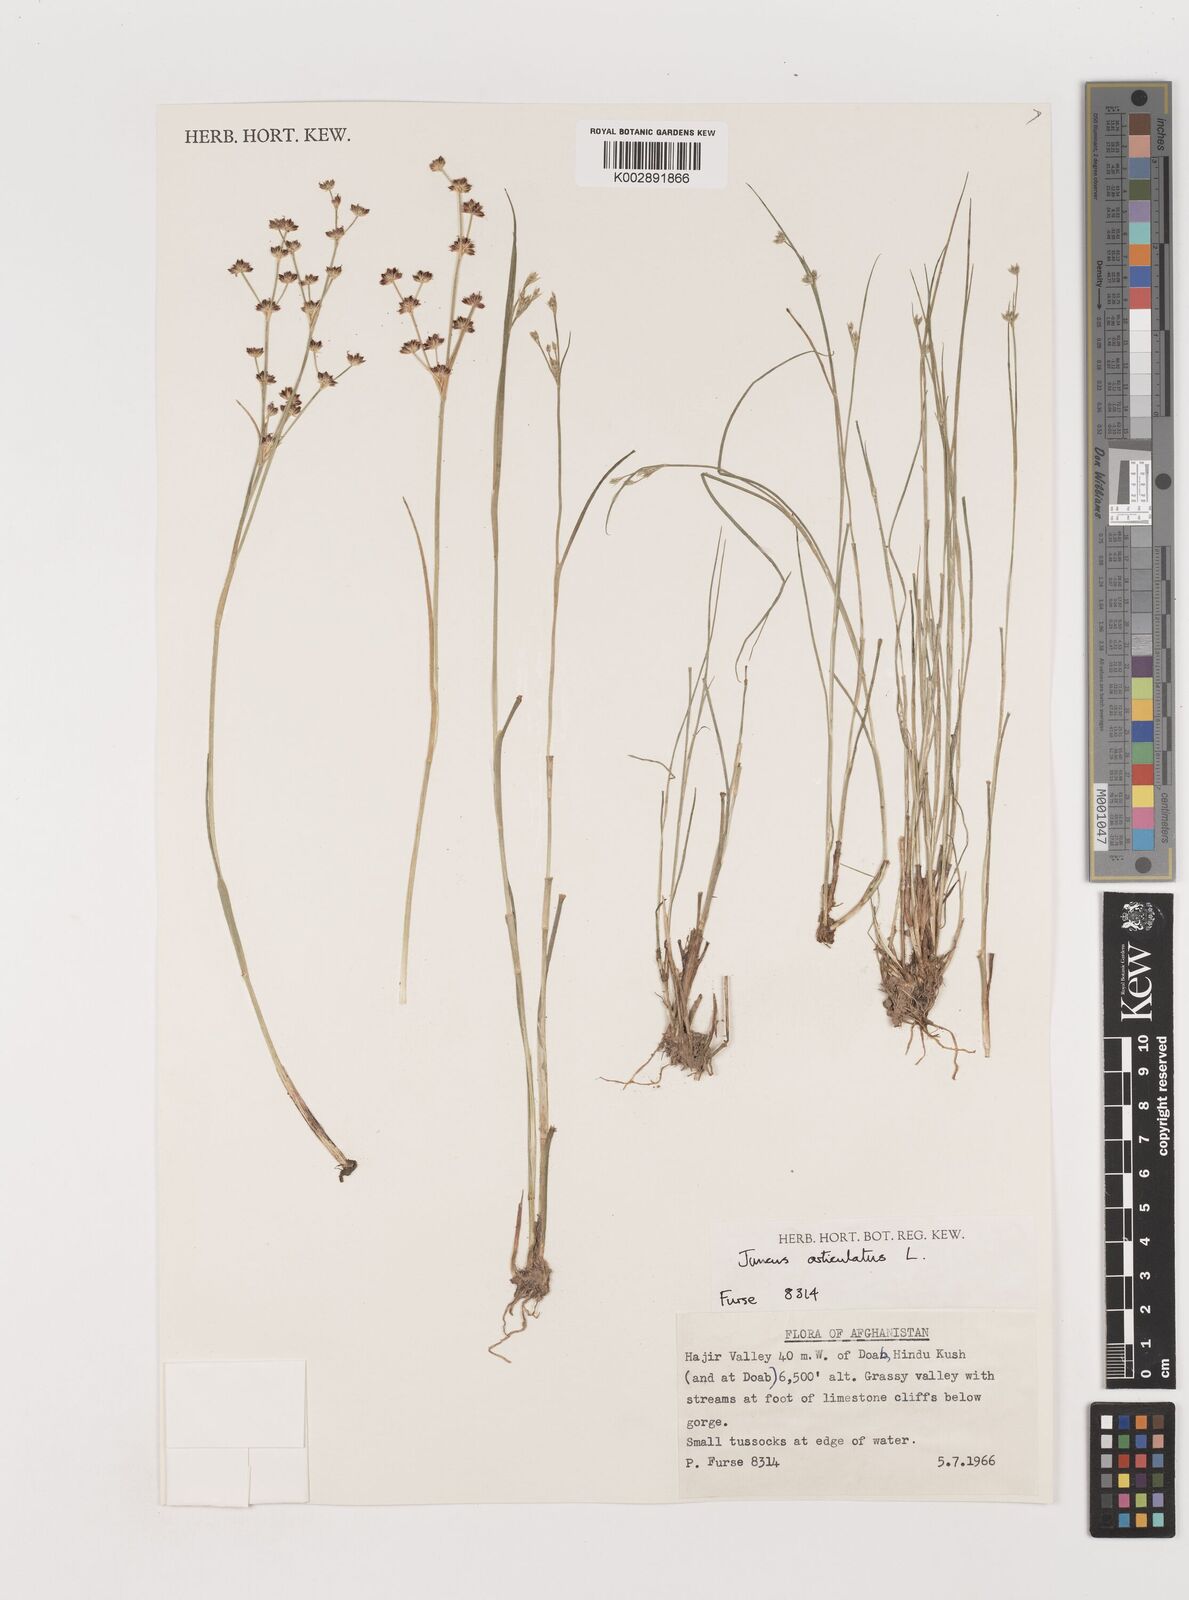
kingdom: Plantae
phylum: Tracheophyta
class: Liliopsida
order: Poales
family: Juncaceae
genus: Juncus
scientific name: Juncus articulatus
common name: Jointed rush
